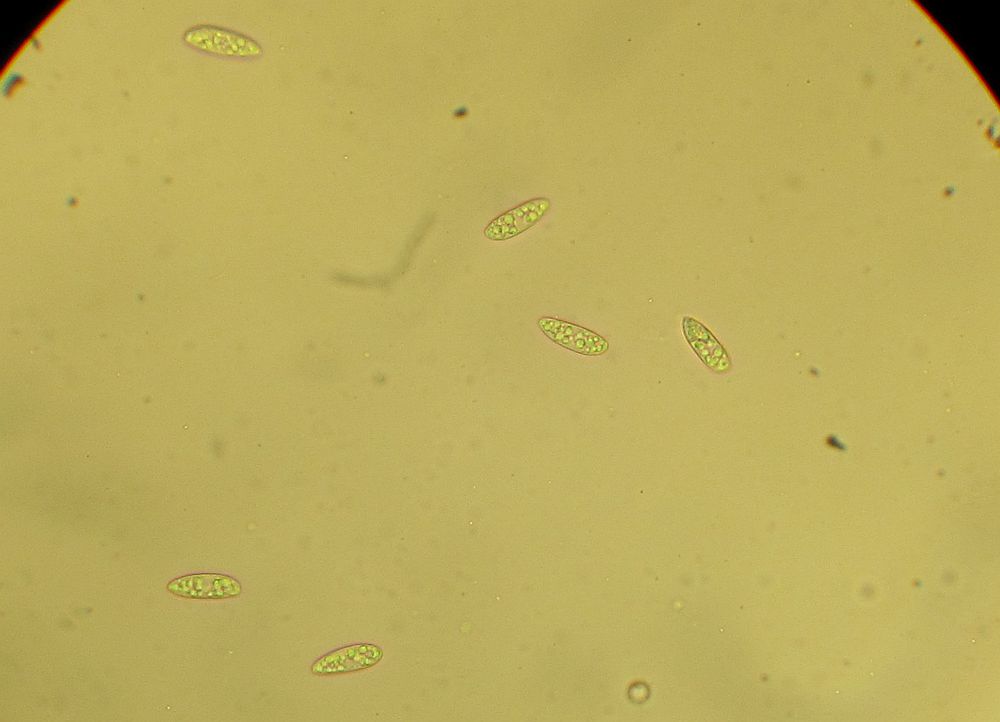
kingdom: Fungi
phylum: Ascomycota
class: Leotiomycetes
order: Helotiales
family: Helotiaceae
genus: Hymenoscyphus
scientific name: Hymenoscyphus calyculus
